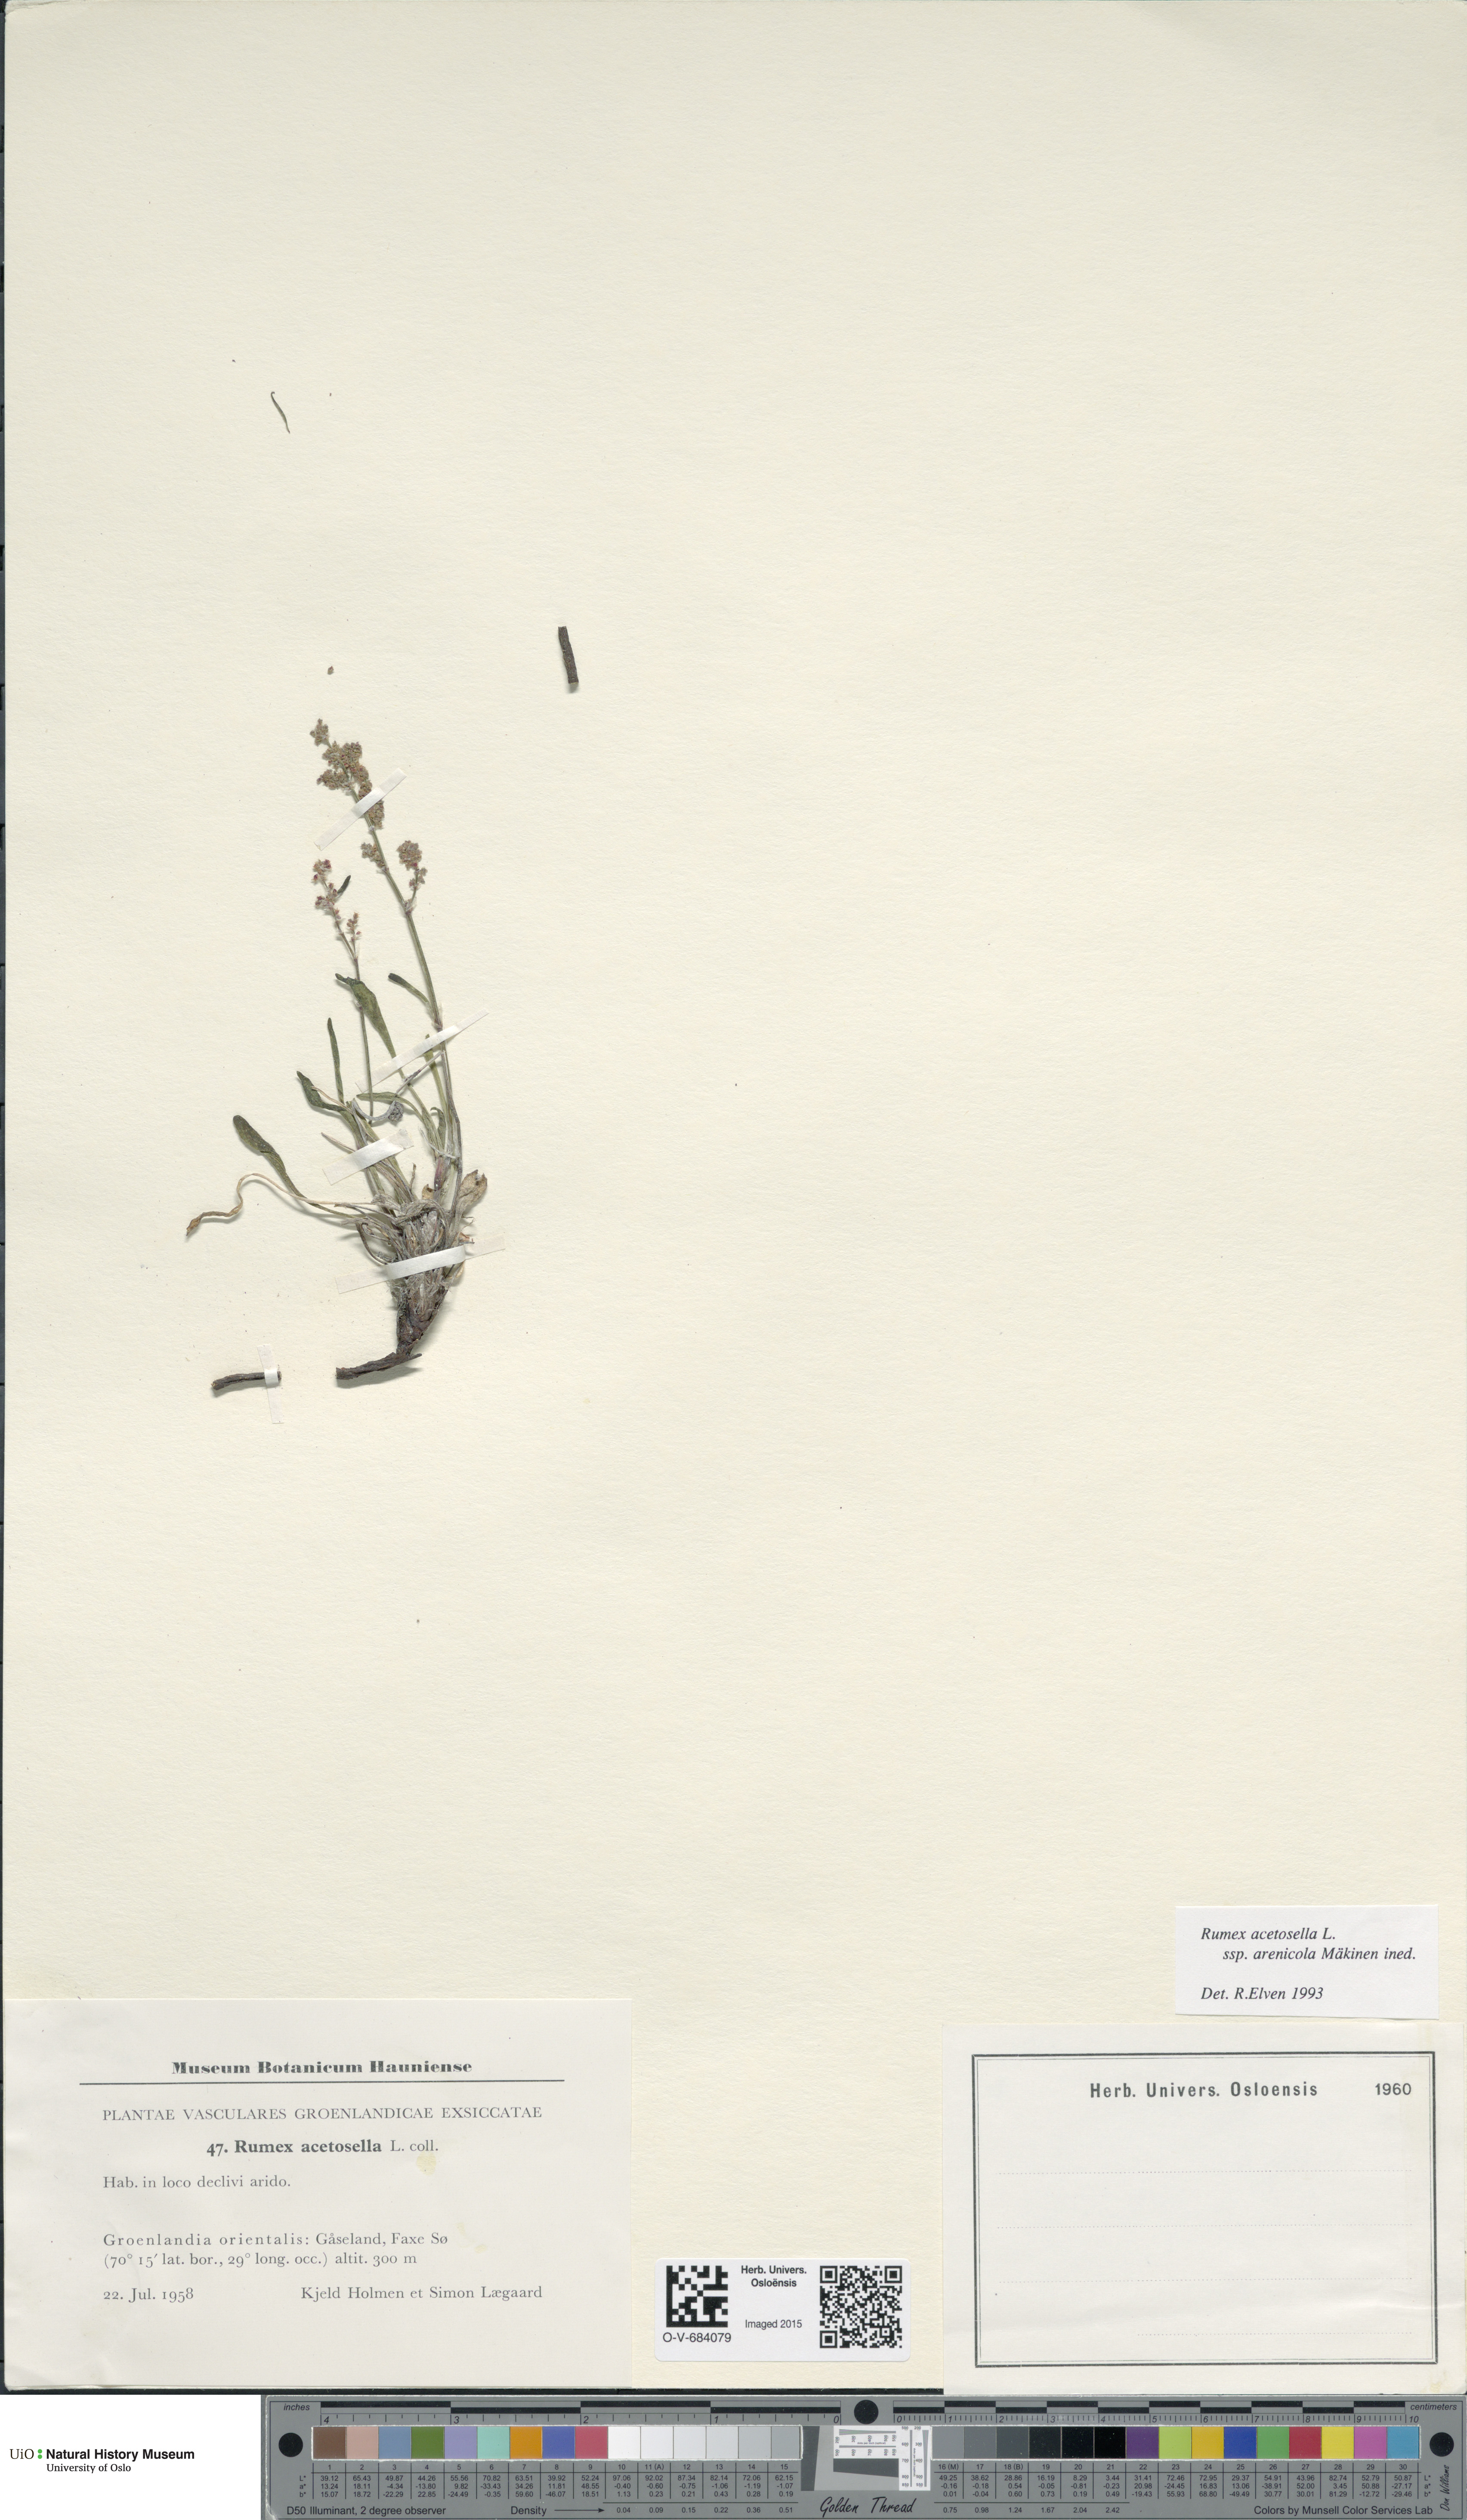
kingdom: Plantae
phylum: Tracheophyta
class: Magnoliopsida
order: Caryophyllales
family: Polygonaceae
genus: Rumex
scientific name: Rumex acetosella
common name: Common sheep sorrel
